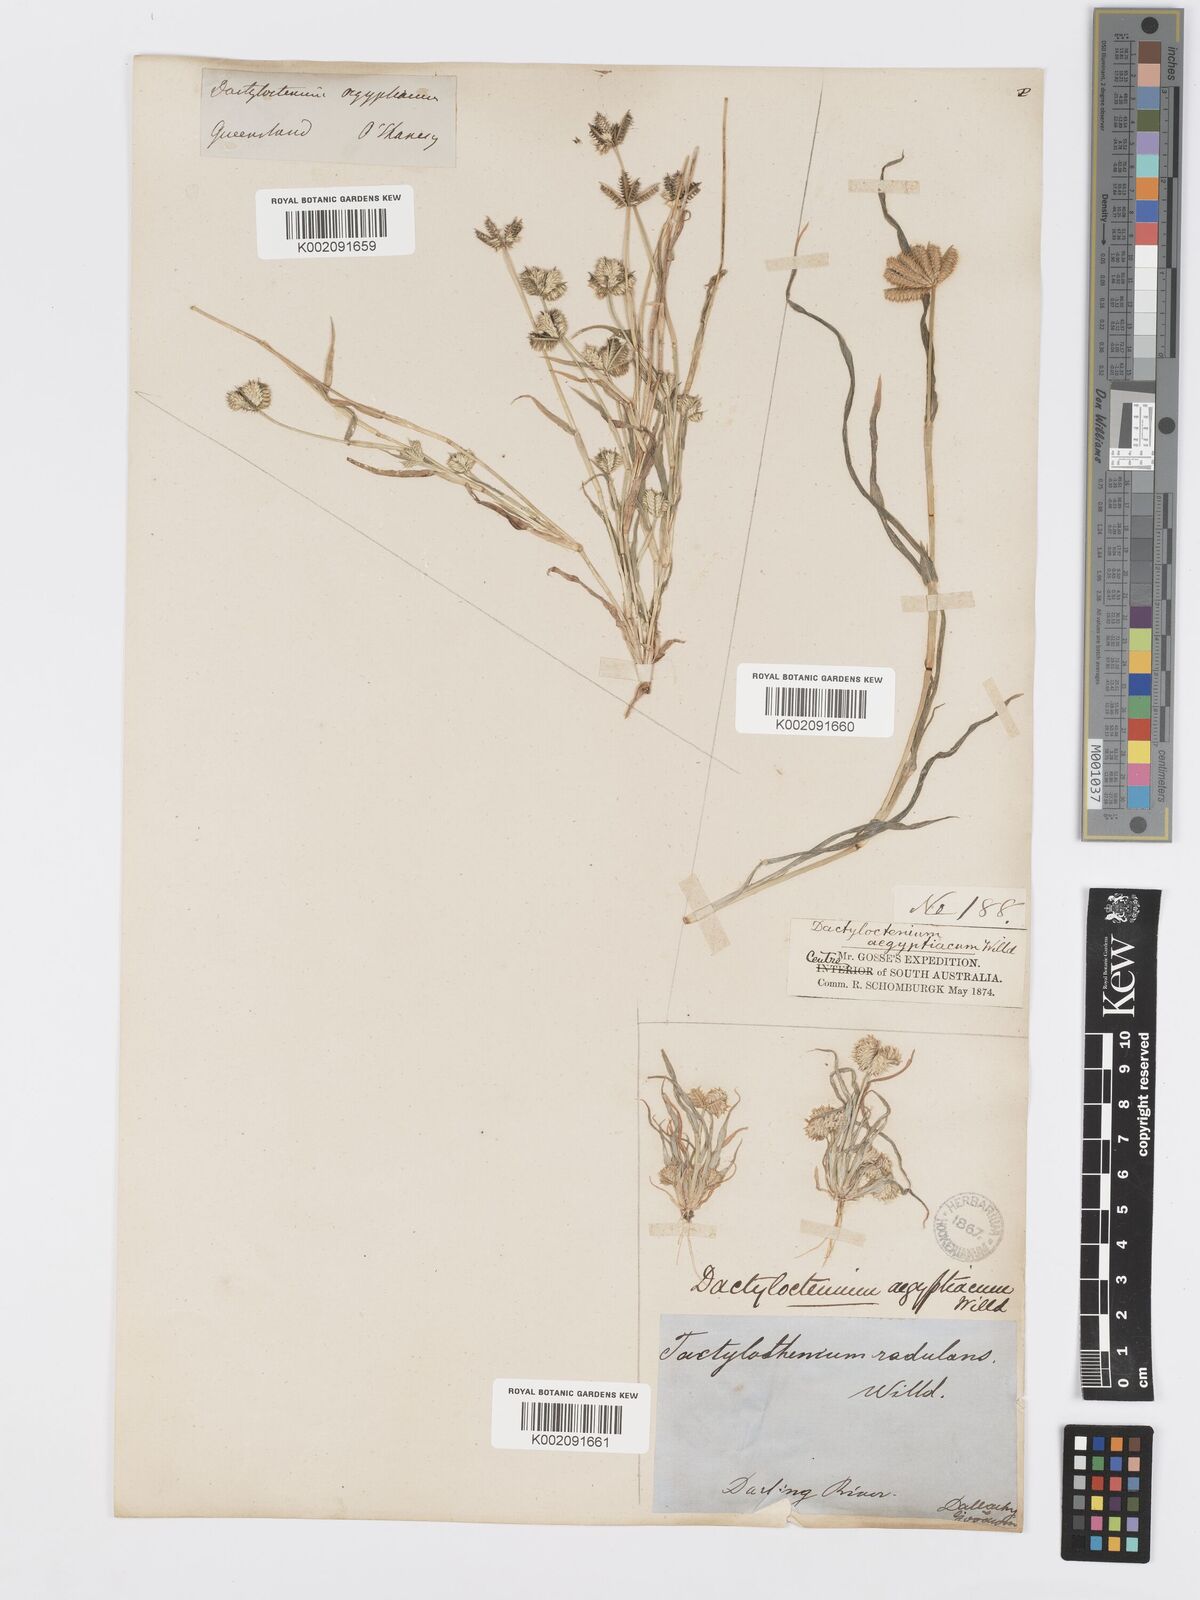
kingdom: Plantae
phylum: Tracheophyta
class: Liliopsida
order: Poales
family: Poaceae
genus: Dactyloctenium
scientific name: Dactyloctenium radulans
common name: Button-grass
